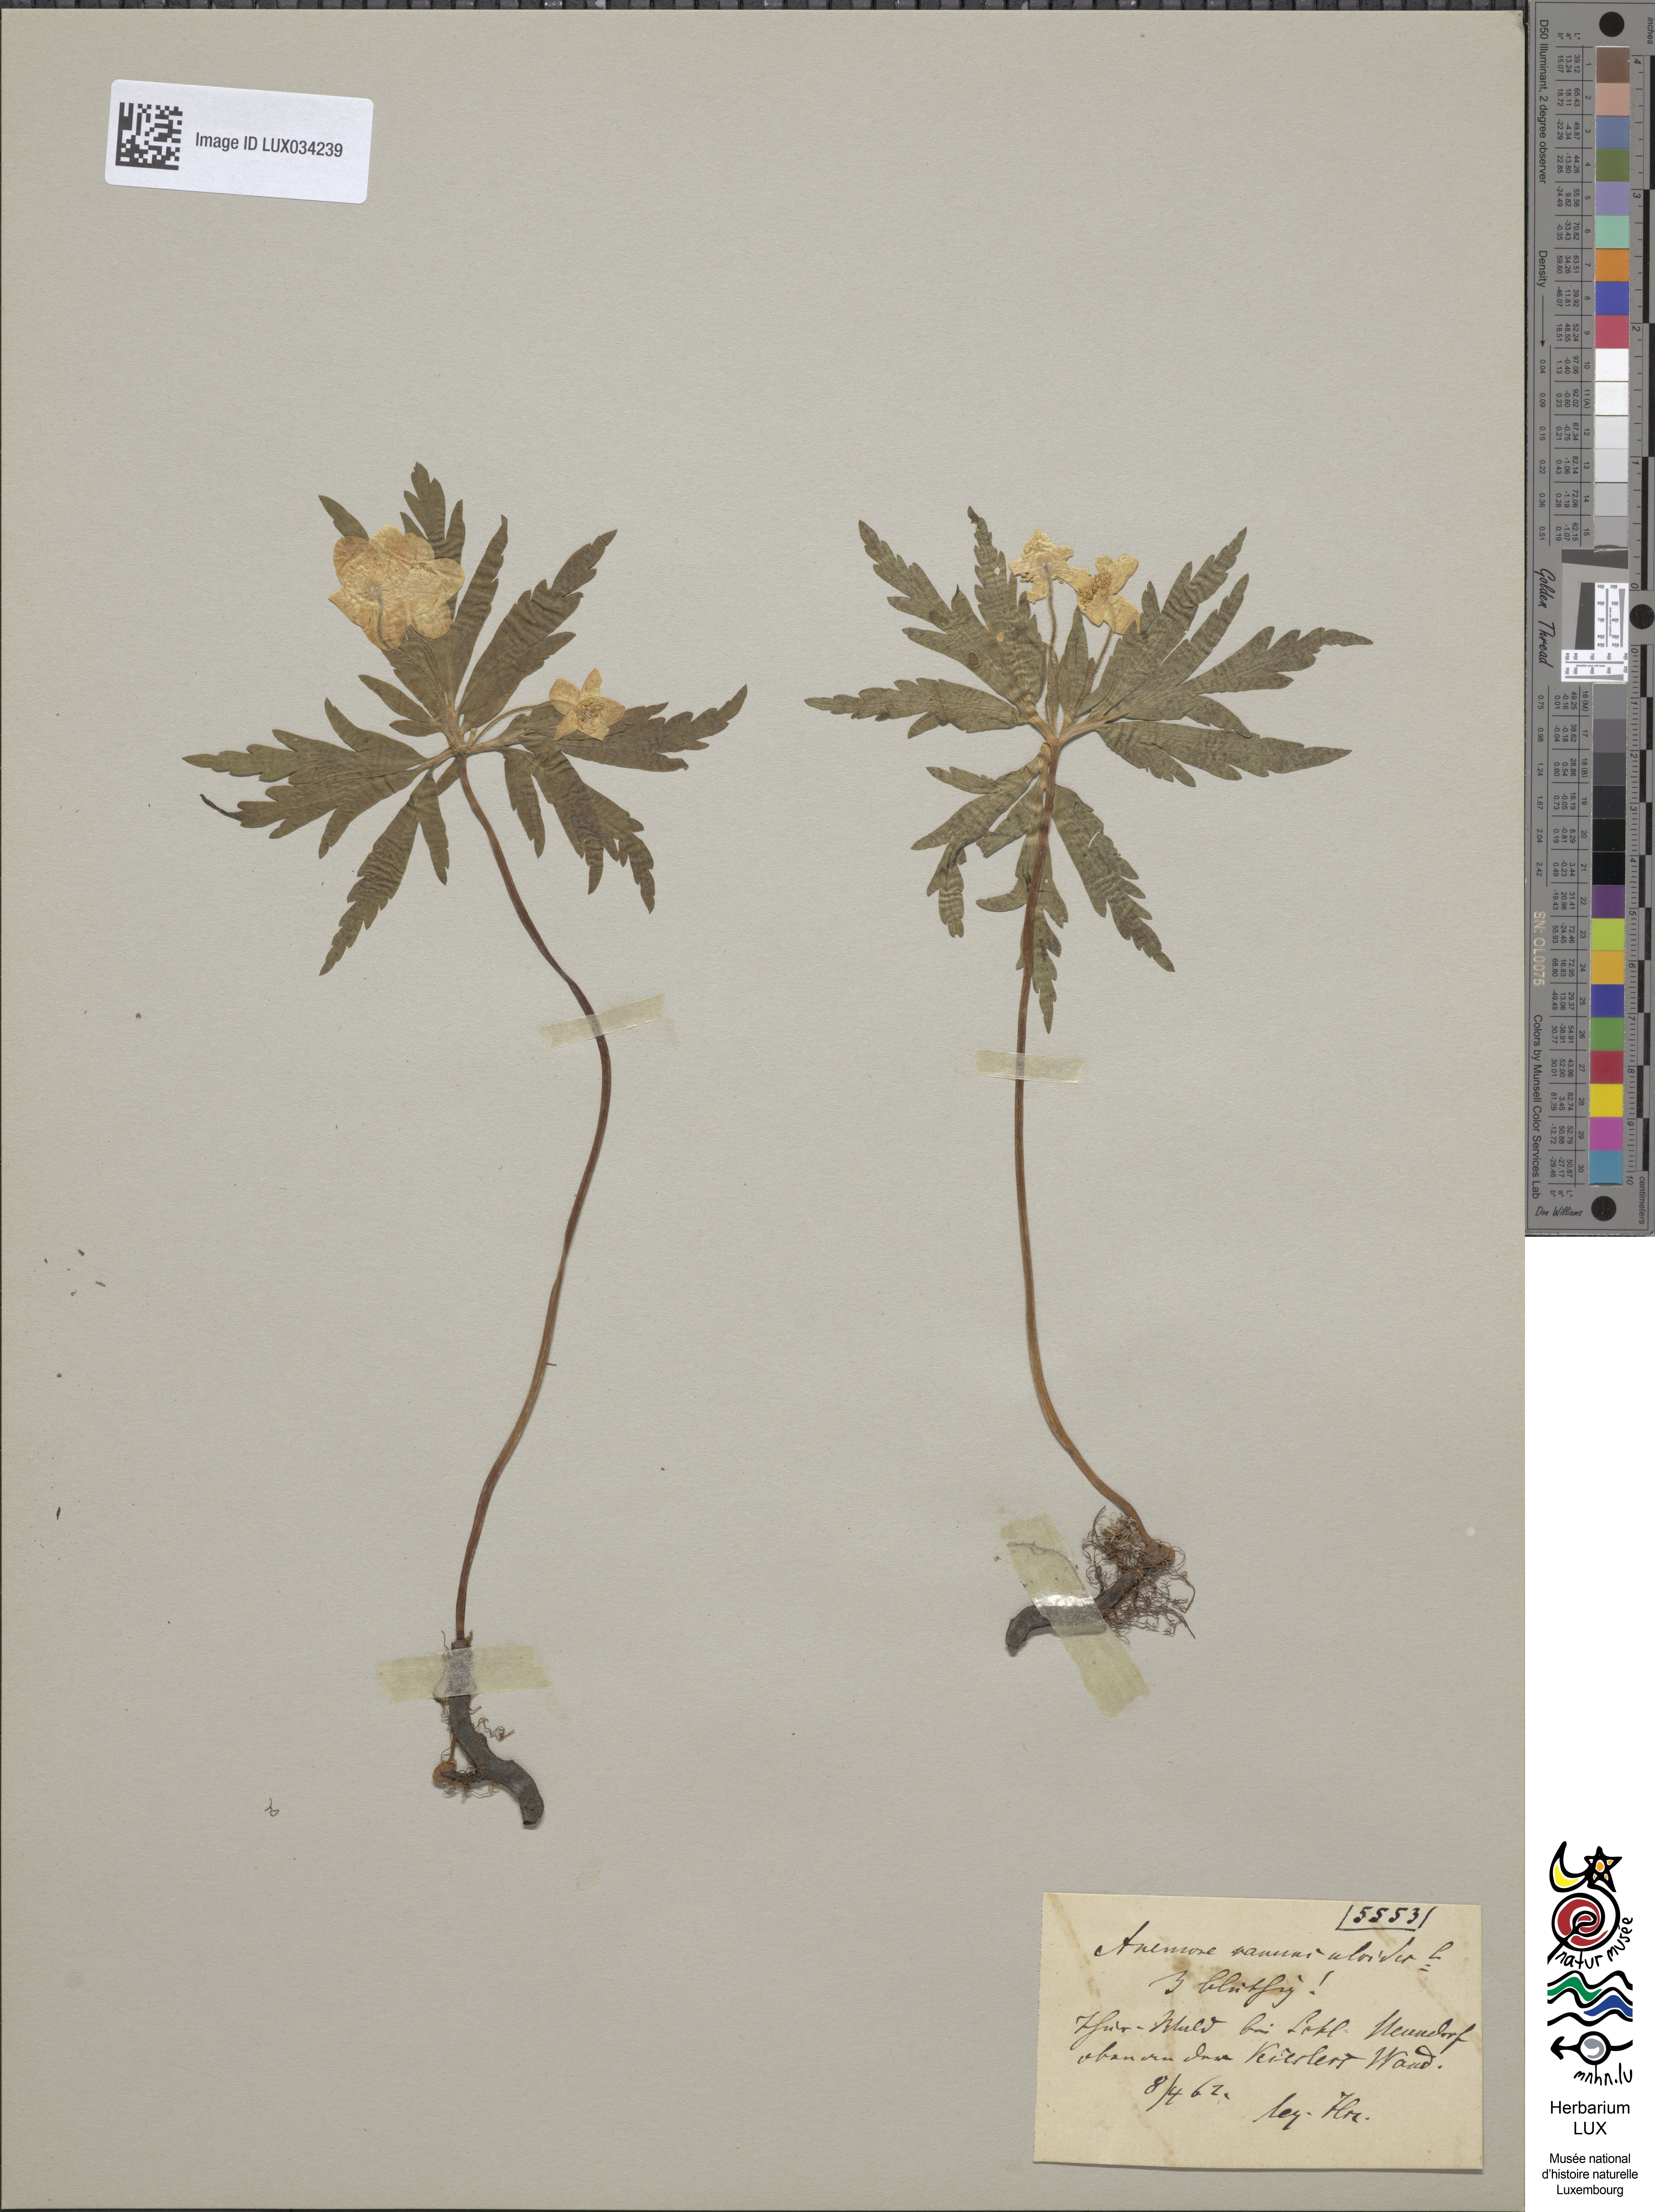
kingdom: Plantae
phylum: Tracheophyta
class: Magnoliopsida
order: Ranunculales
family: Ranunculaceae
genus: Anemone
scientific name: Anemone ranunculoides
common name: Yellow anemone
